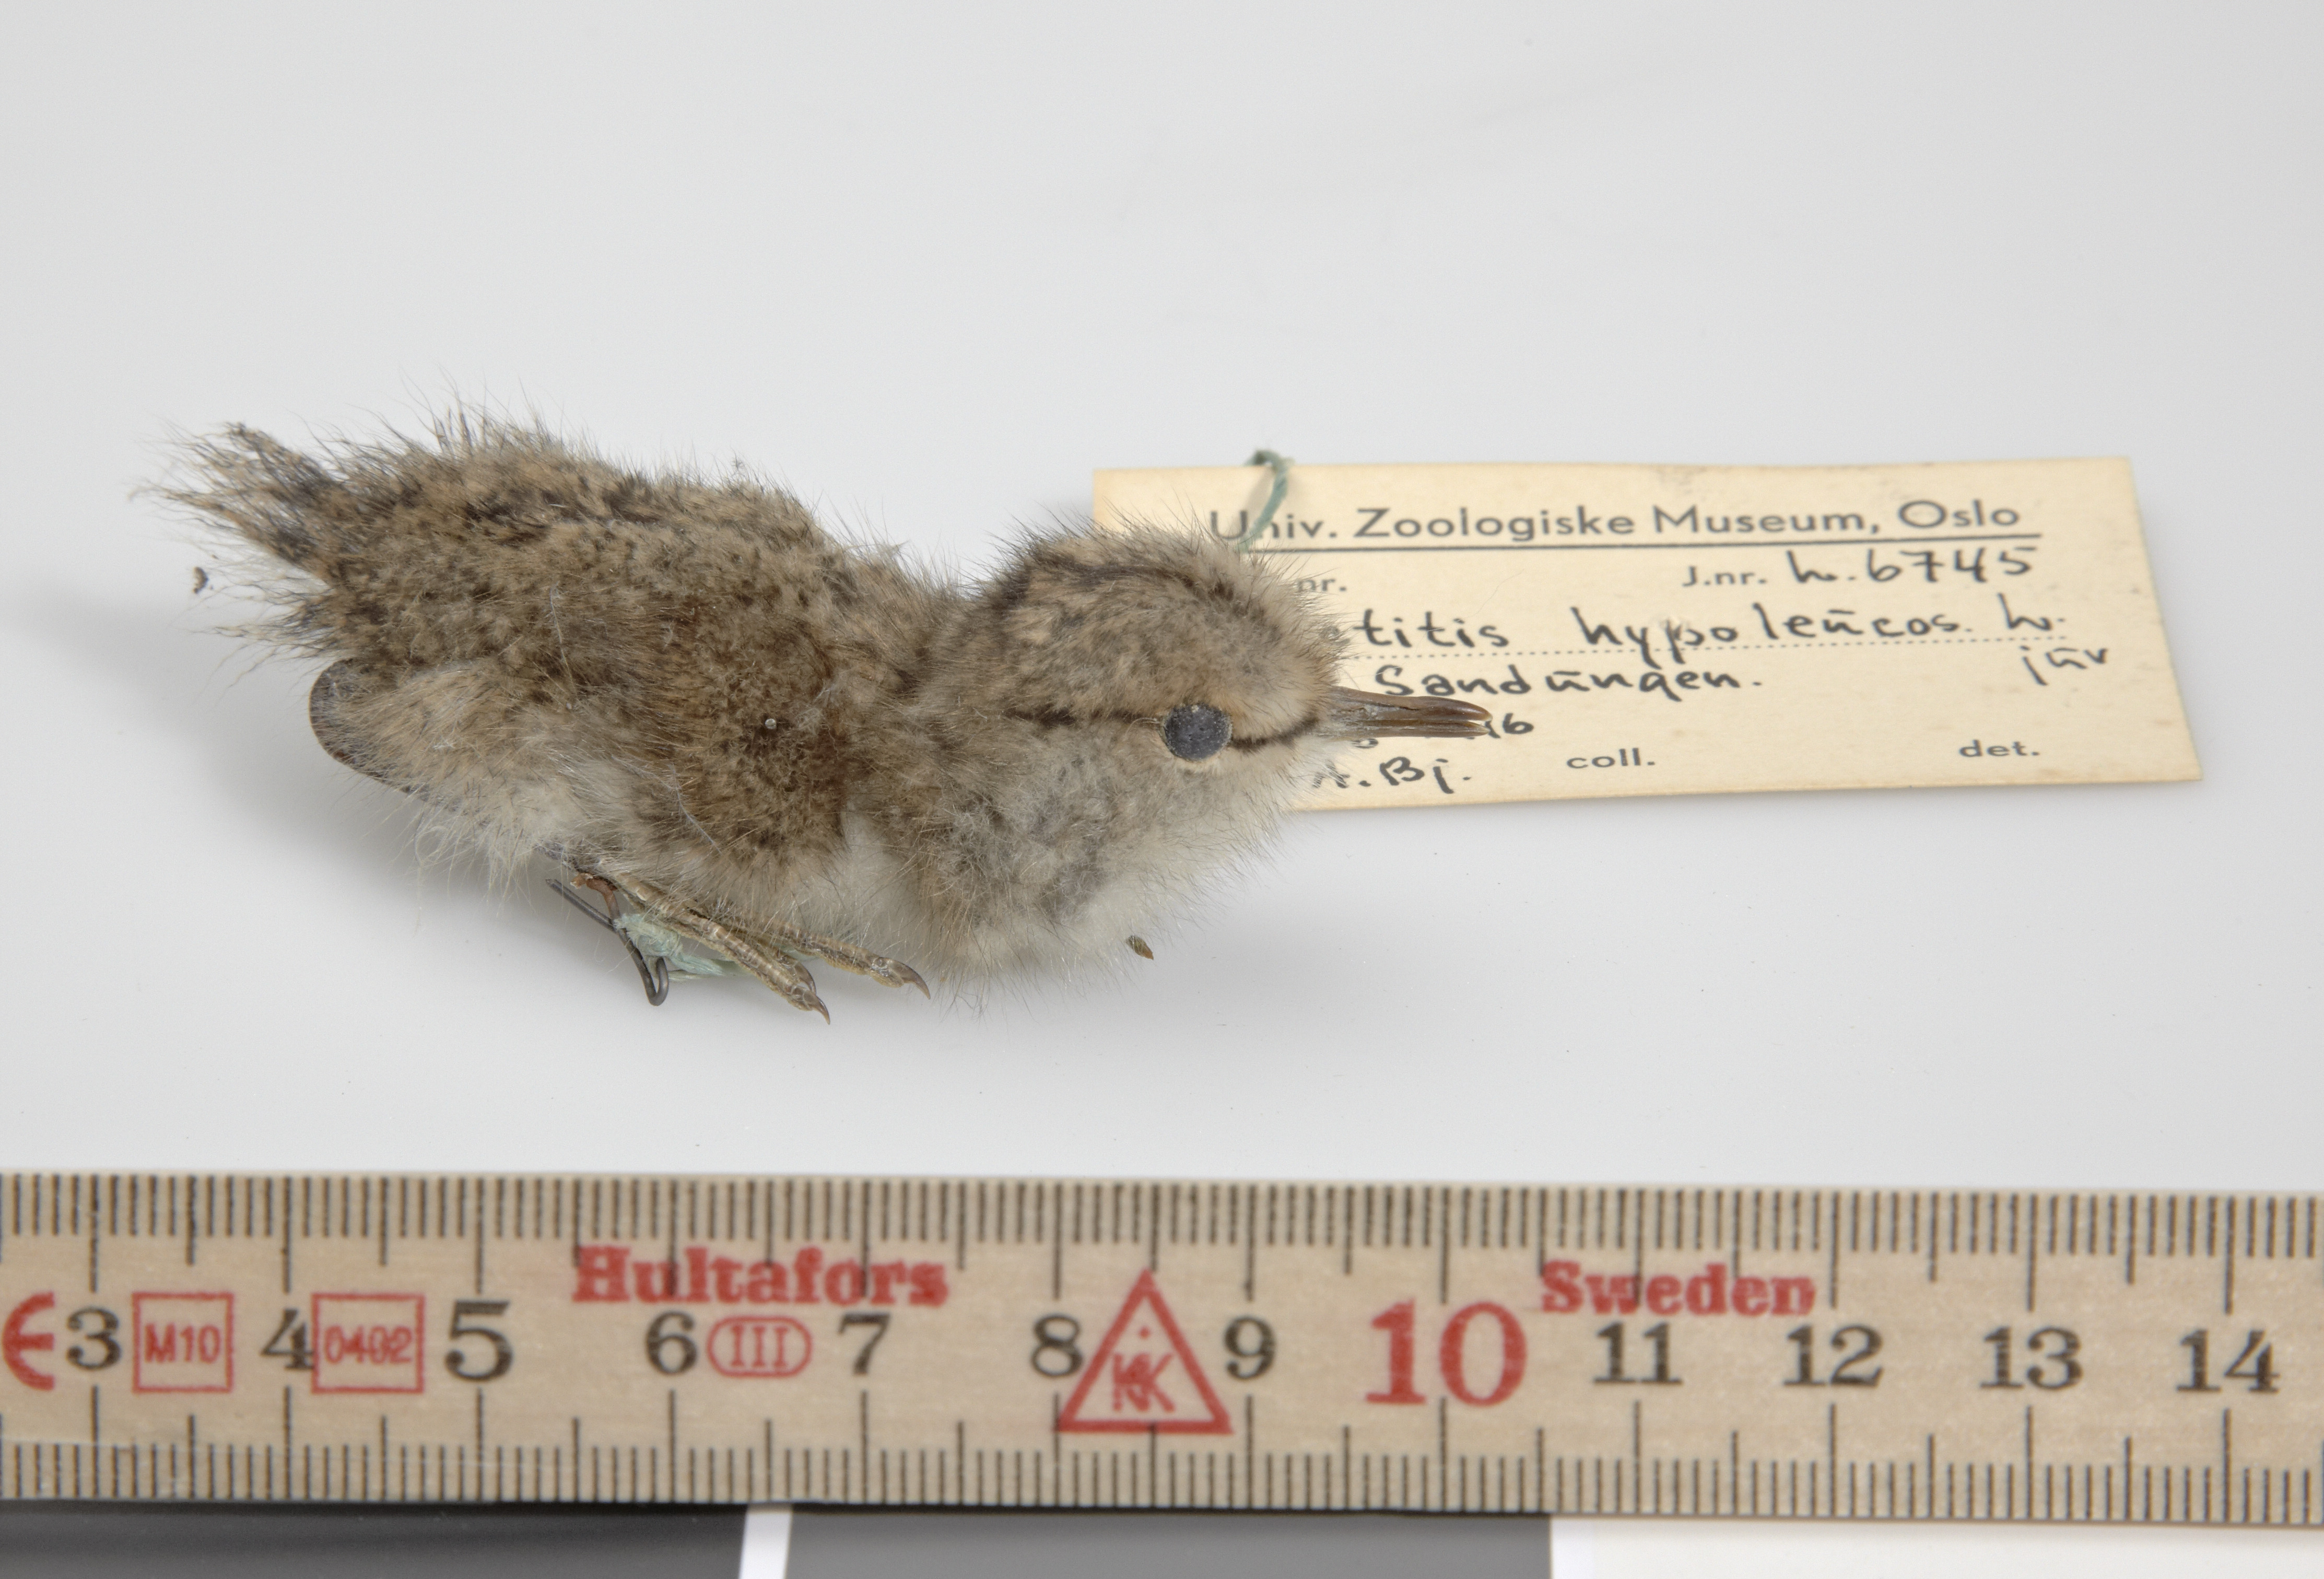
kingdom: Animalia
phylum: Chordata
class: Aves
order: Charadriiformes
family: Scolopacidae
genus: Actitis
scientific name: Actitis hypoleucos
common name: Common sandpiper
